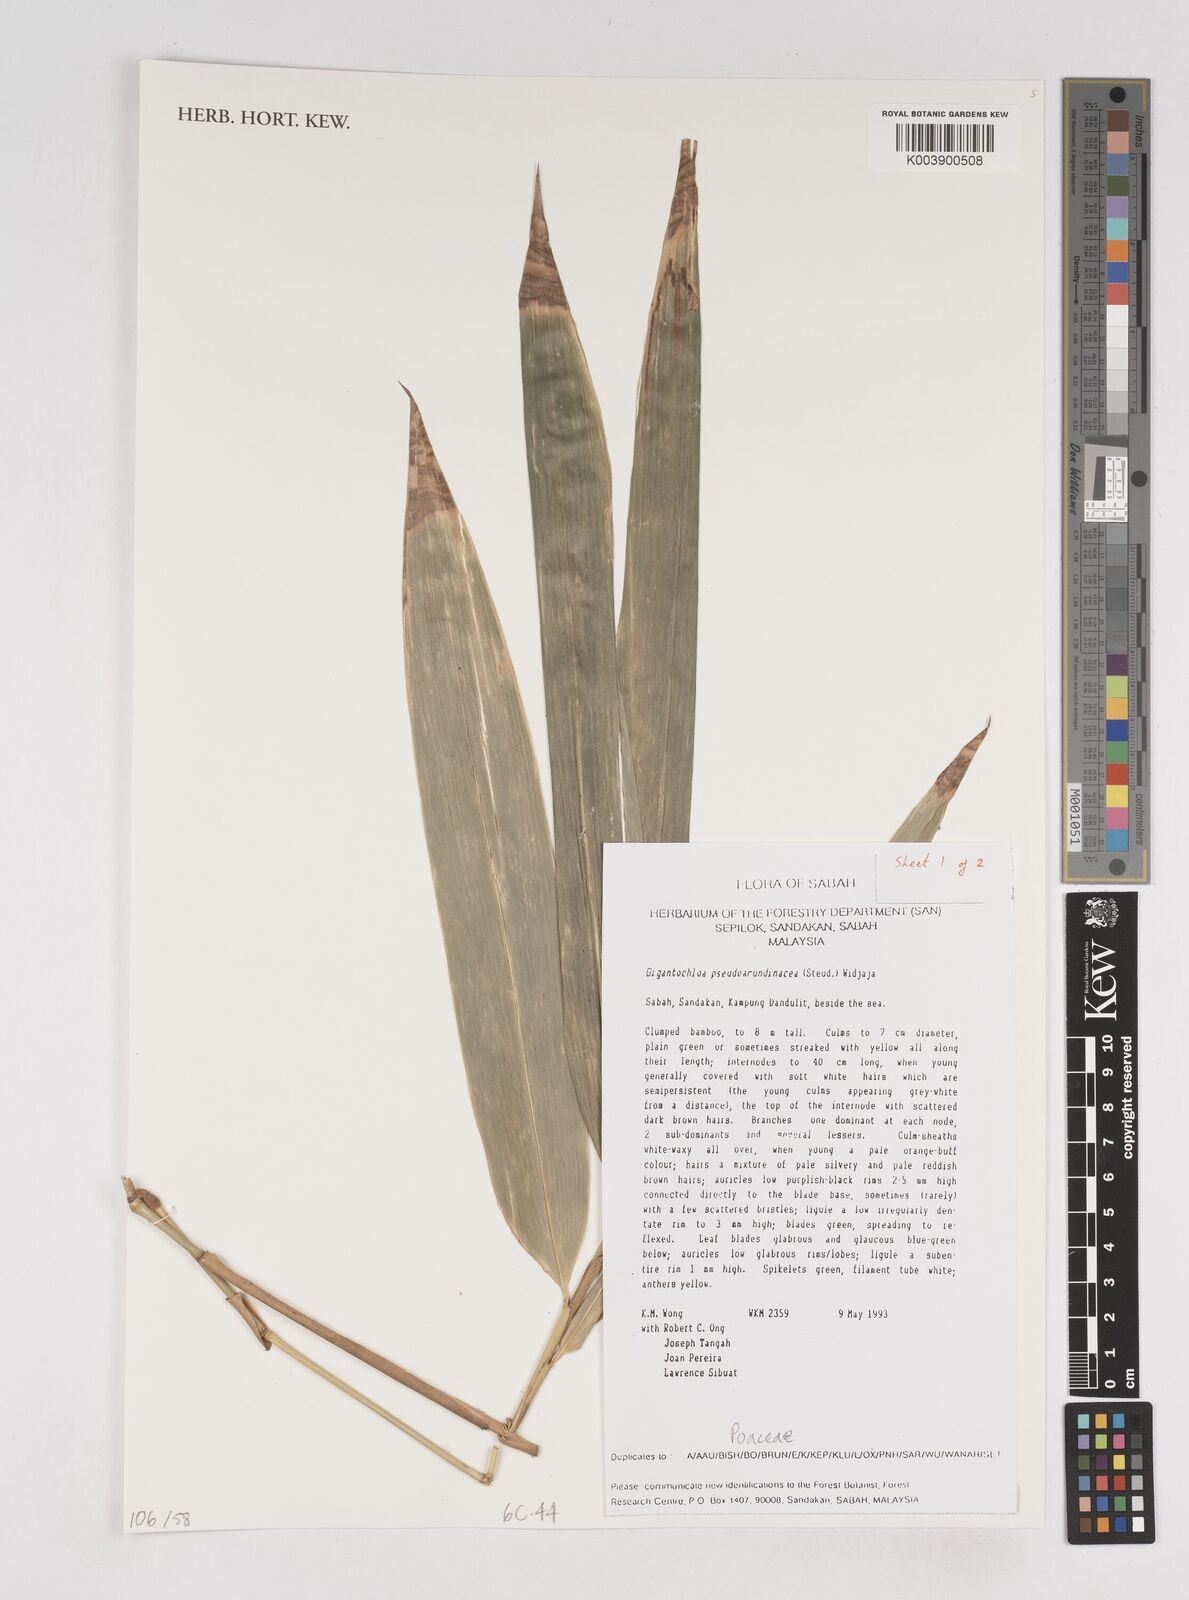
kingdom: Plantae
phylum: Tracheophyta
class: Liliopsida
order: Poales
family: Poaceae
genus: Gigantochloa
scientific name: Gigantochloa verticillata
